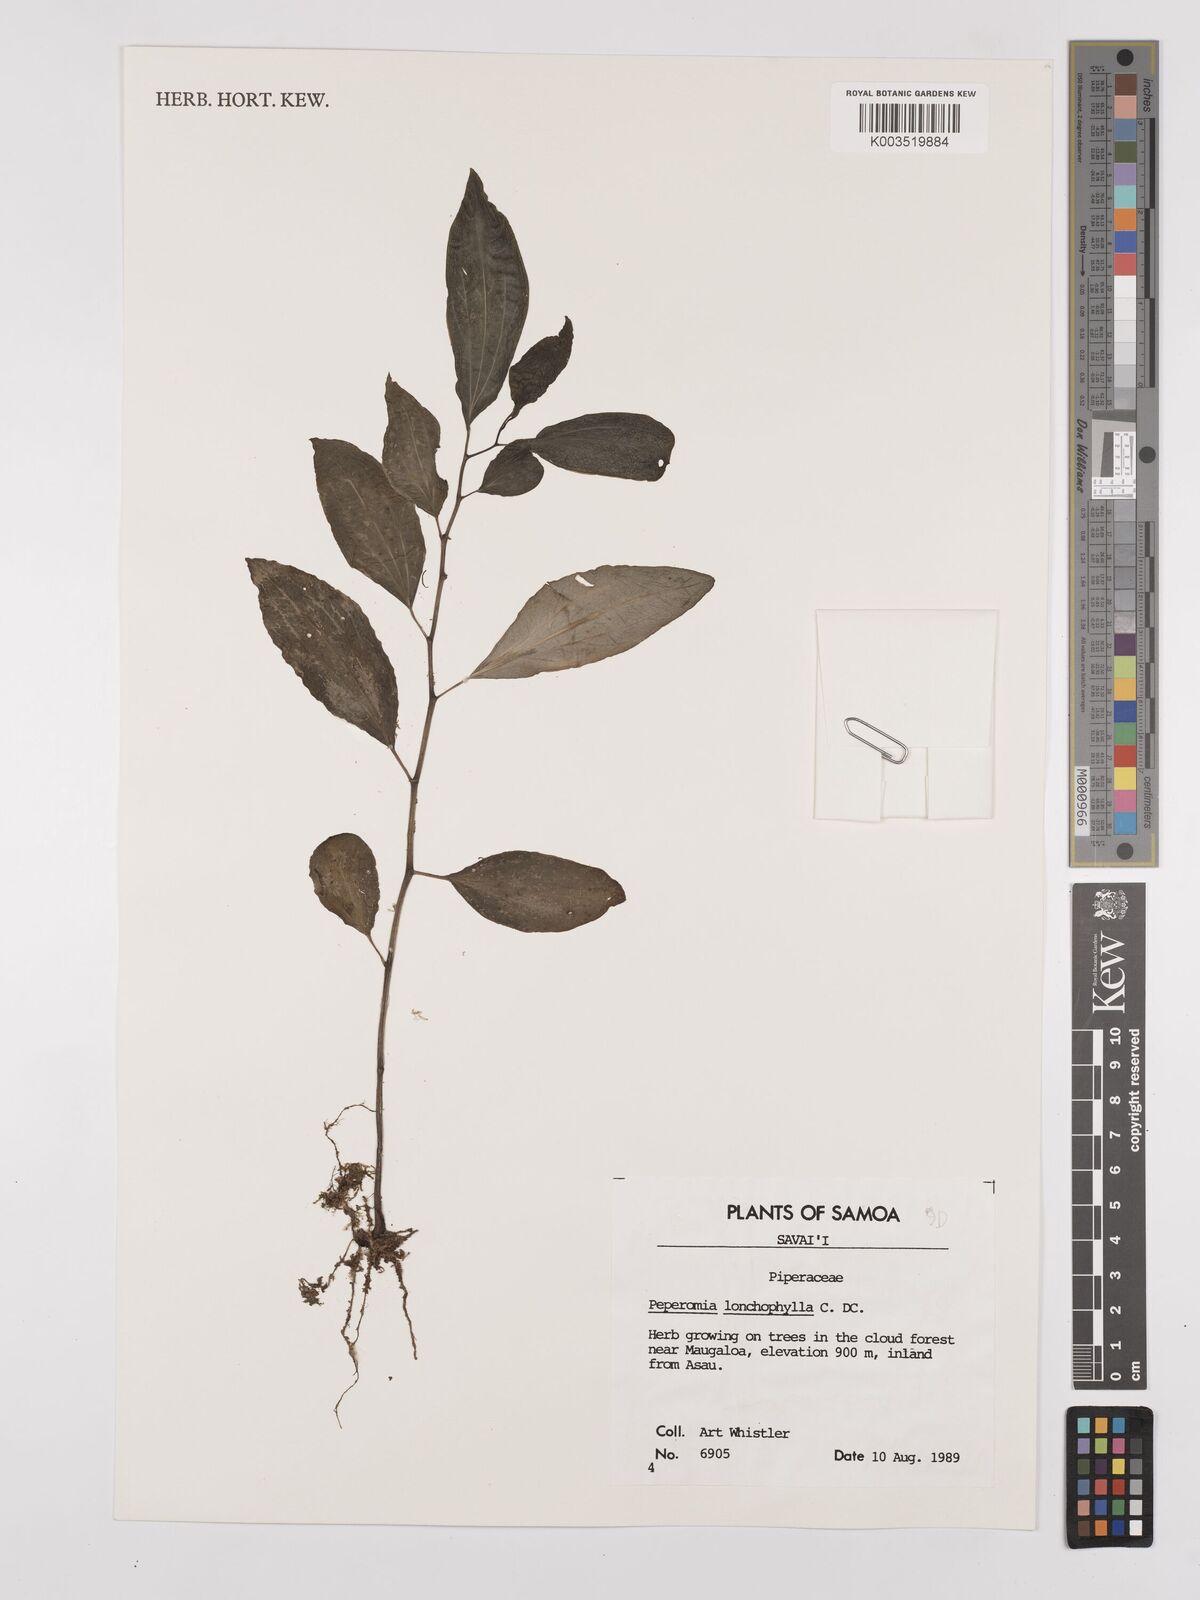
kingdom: Plantae
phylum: Tracheophyta
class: Magnoliopsida
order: Piperales
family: Piperaceae
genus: Peperomia
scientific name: Peperomia oahuensis
